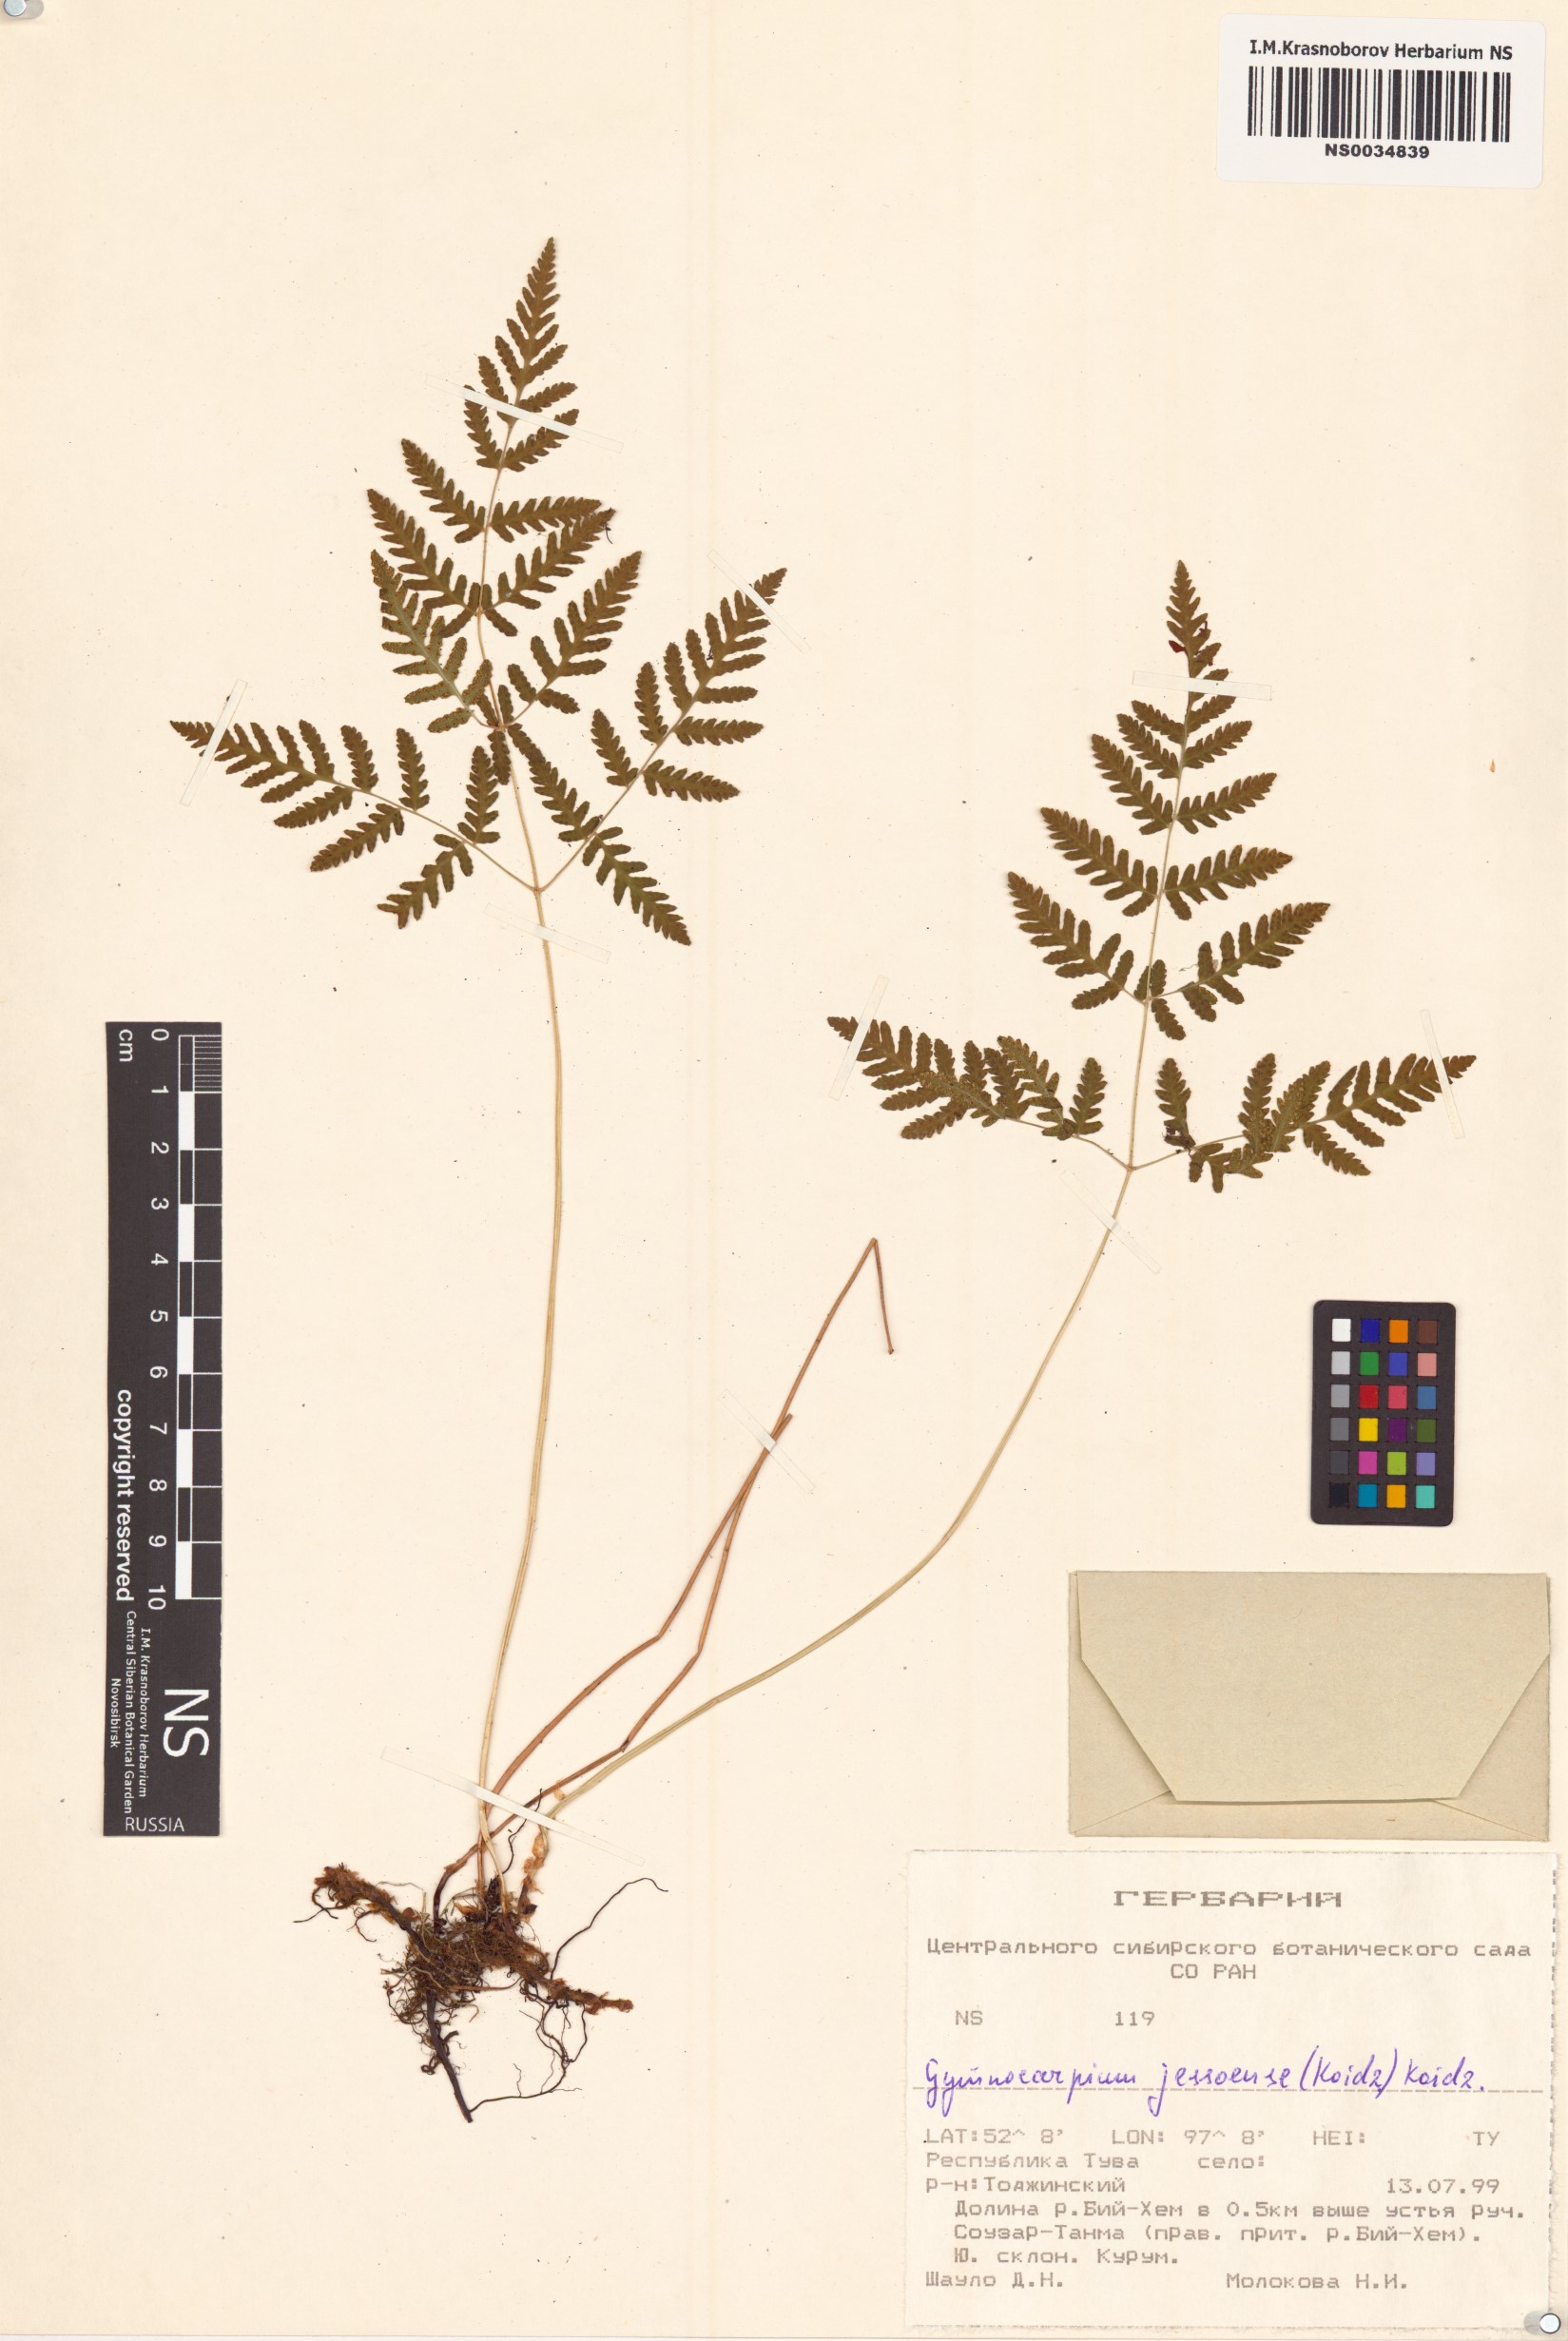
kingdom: Plantae
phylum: Tracheophyta
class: Polypodiopsida
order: Polypodiales
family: Cystopteridaceae
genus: Gymnocarpium
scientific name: Gymnocarpium jessoense
